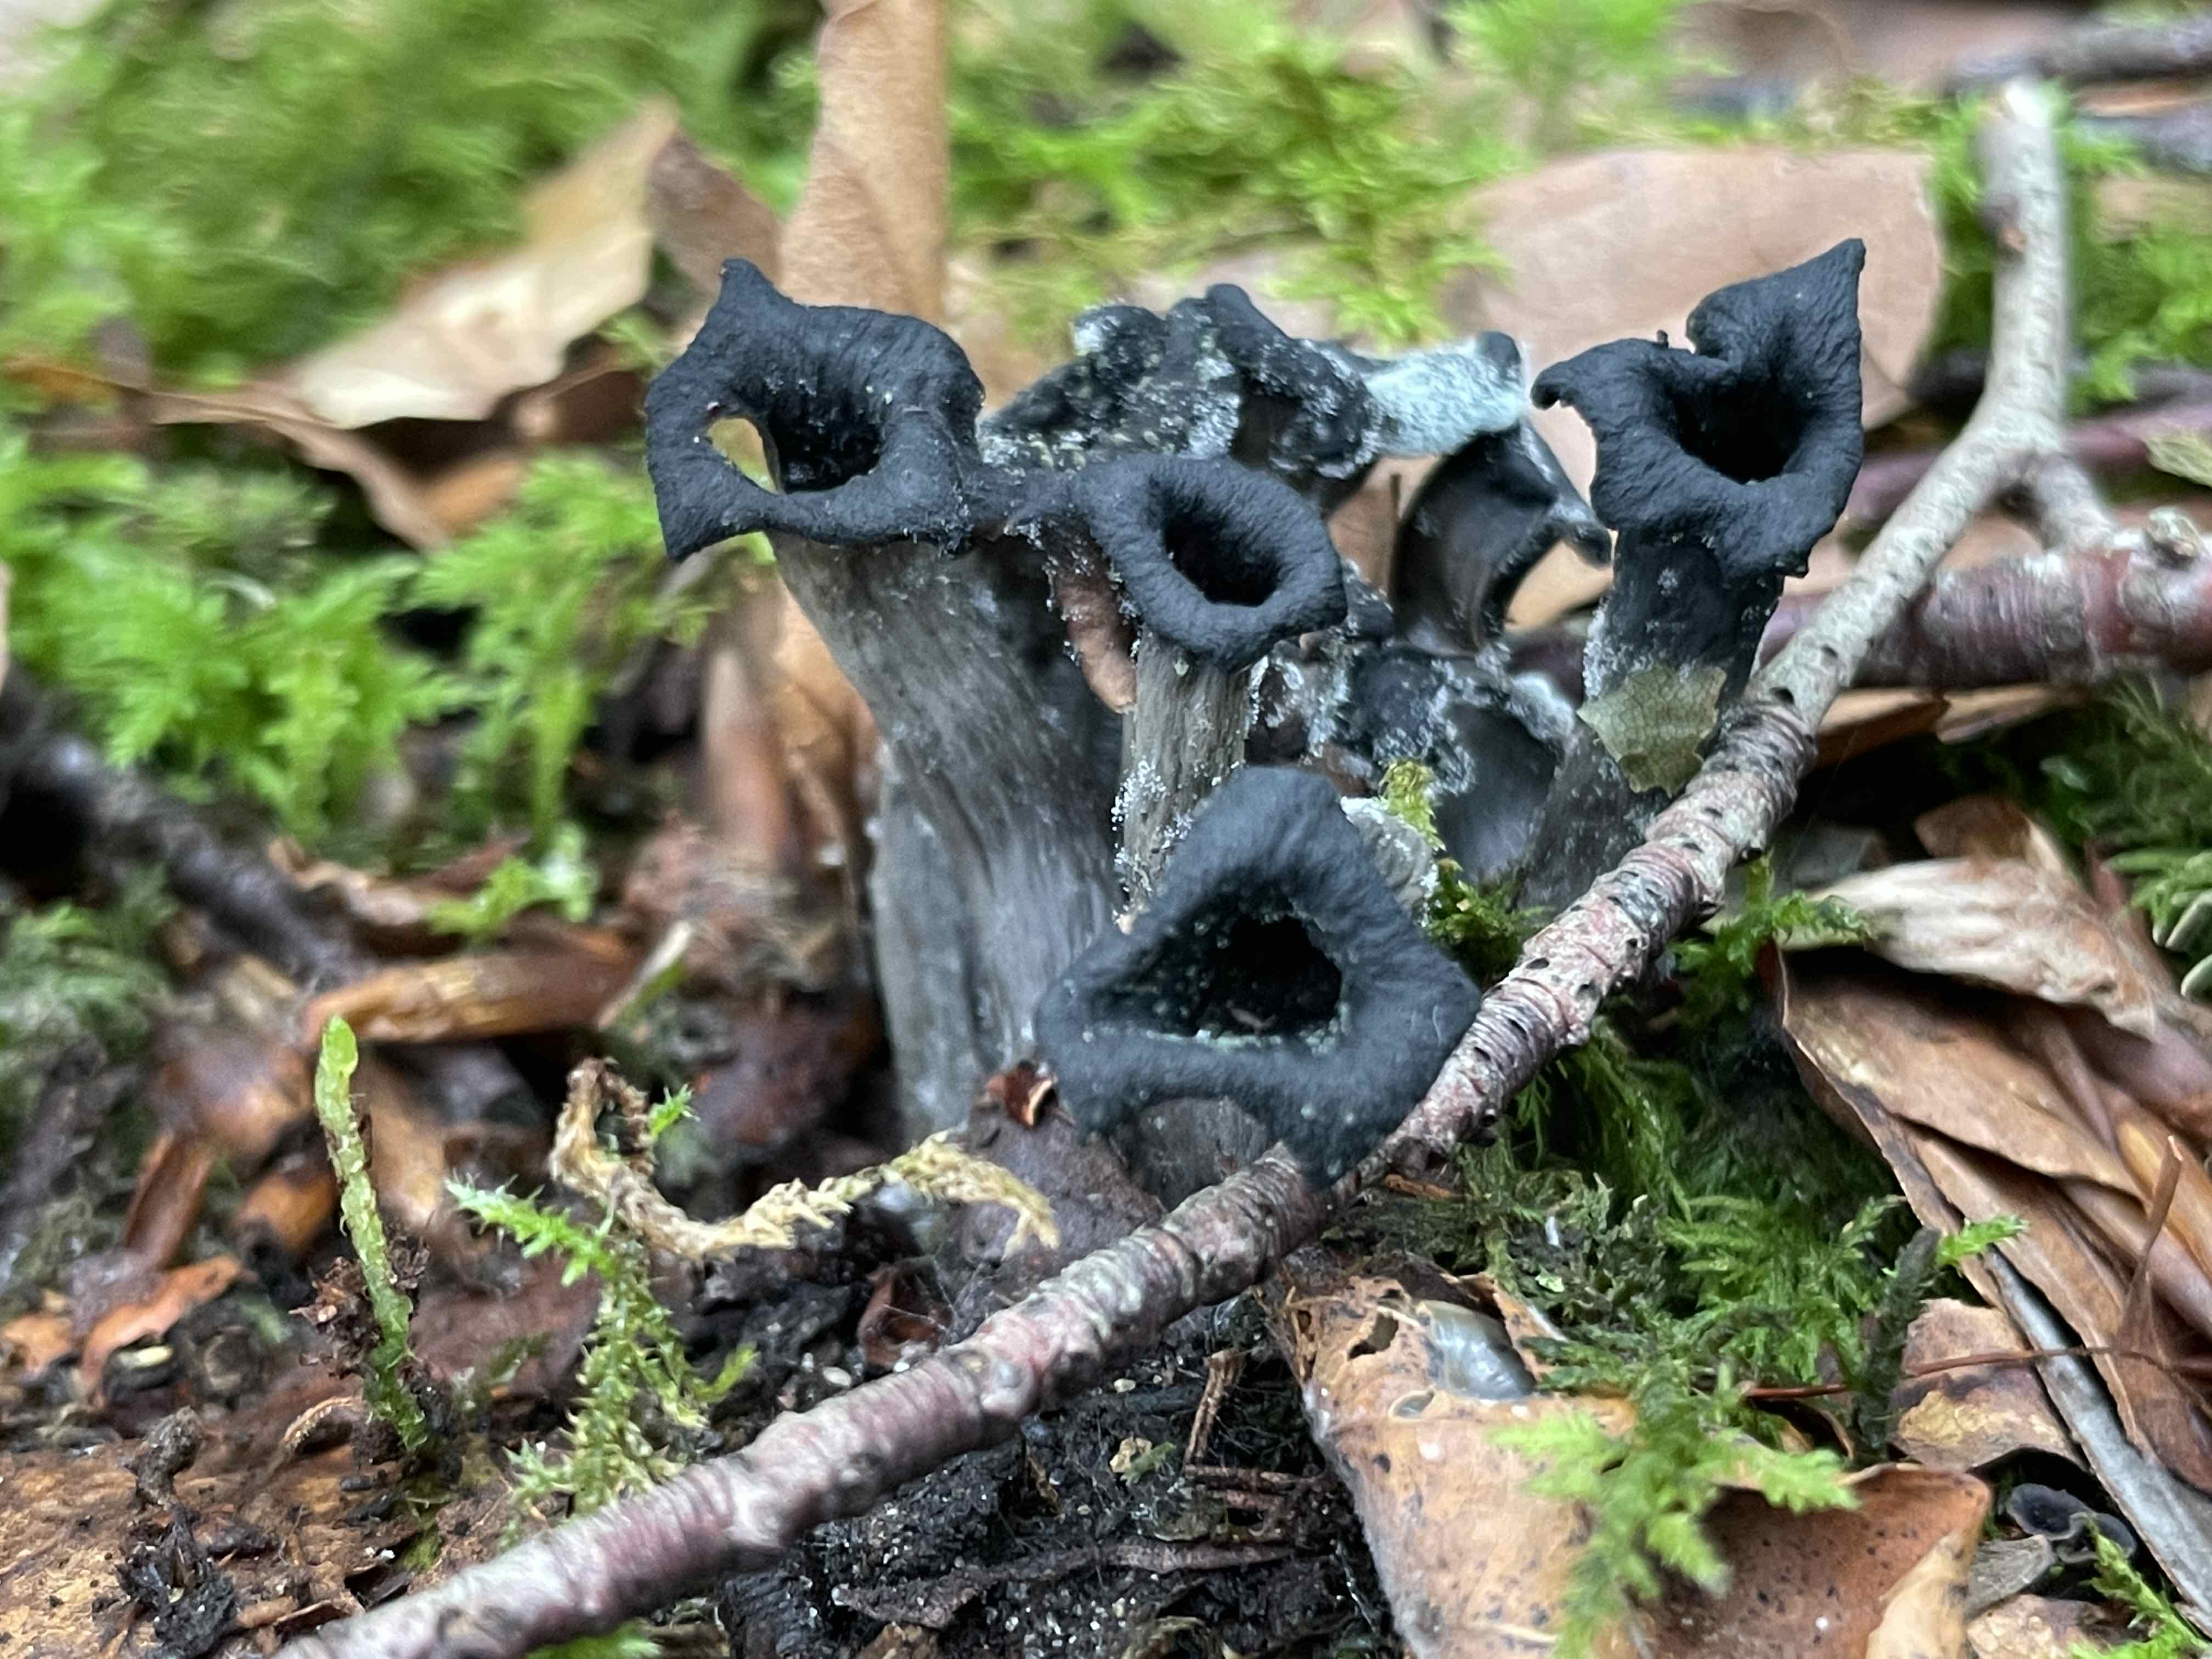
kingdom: Fungi
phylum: Basidiomycota
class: Agaricomycetes
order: Cantharellales
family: Hydnaceae
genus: Craterellus
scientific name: Craterellus cornucopioides
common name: trompetsvamp
